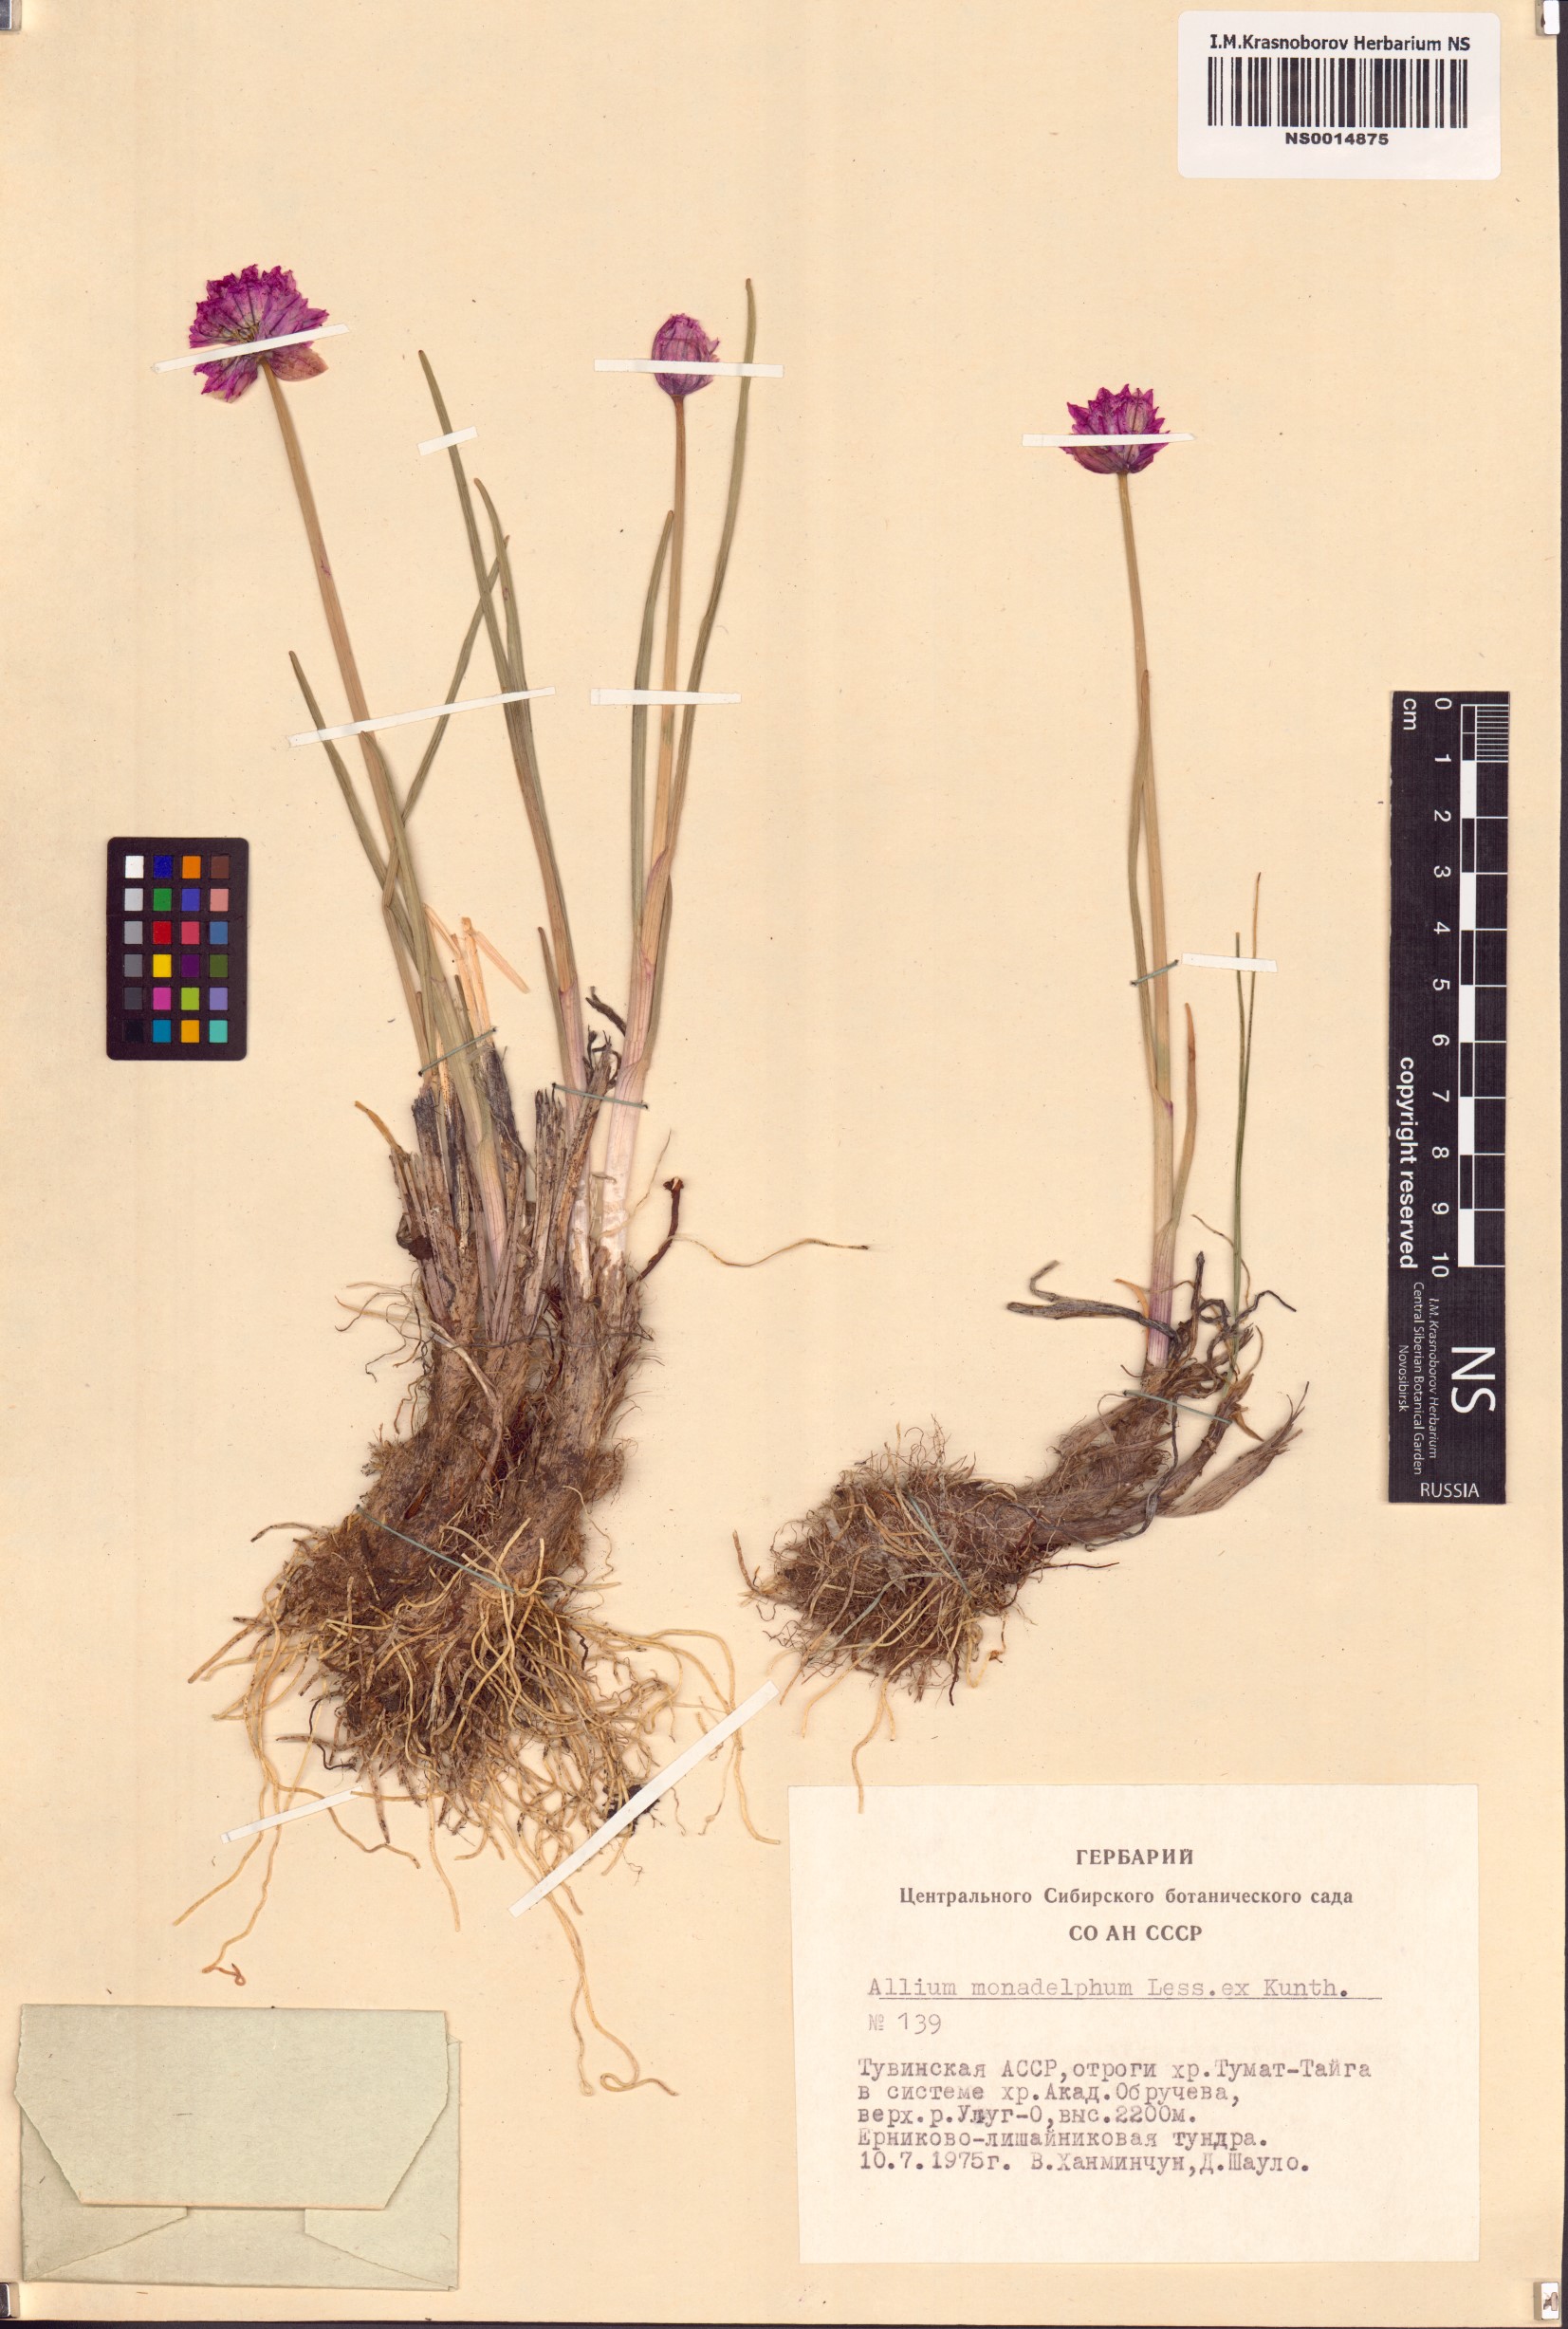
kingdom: Plantae
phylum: Tracheophyta
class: Liliopsida
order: Asparagales
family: Amaryllidaceae
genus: Allium
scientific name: Allium atrosanguineum
